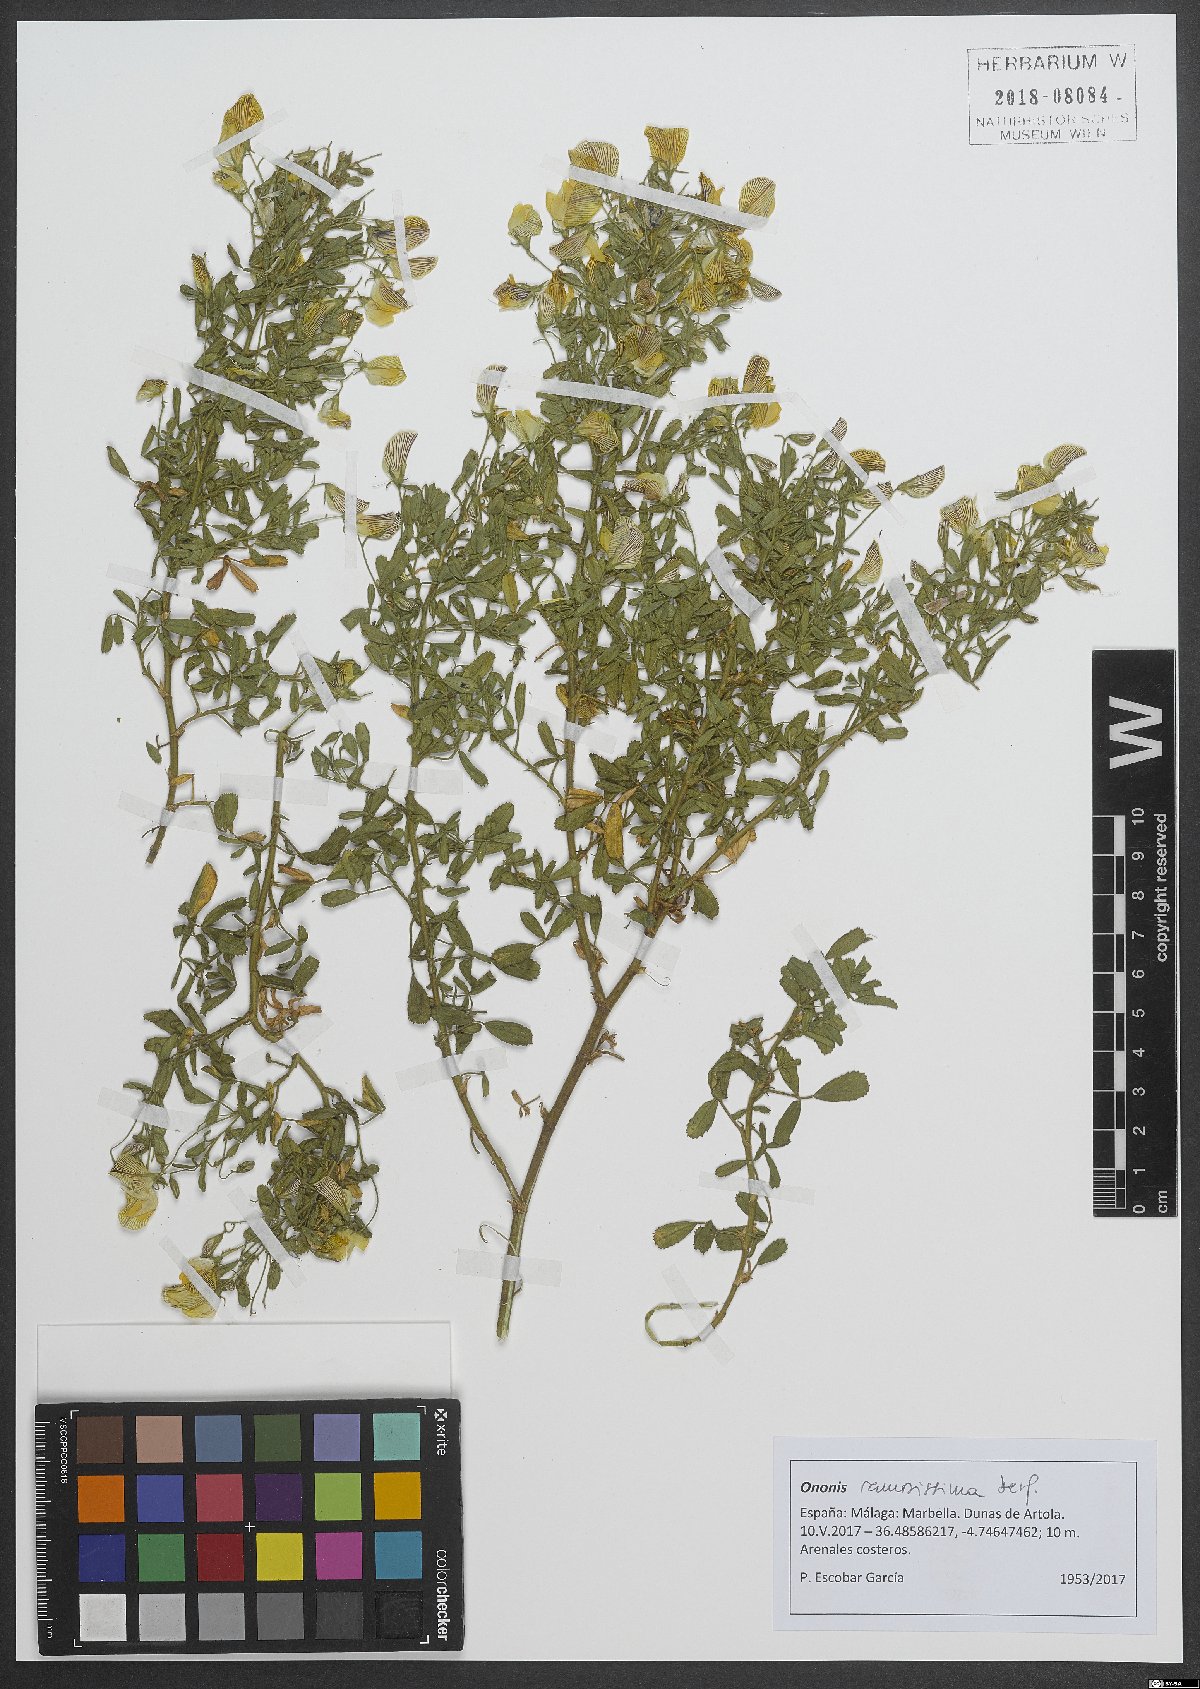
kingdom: Plantae
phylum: Tracheophyta
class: Magnoliopsida
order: Fabales
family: Fabaceae
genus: Ononis
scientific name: Ononis ramosissima
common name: Bush restharrow
